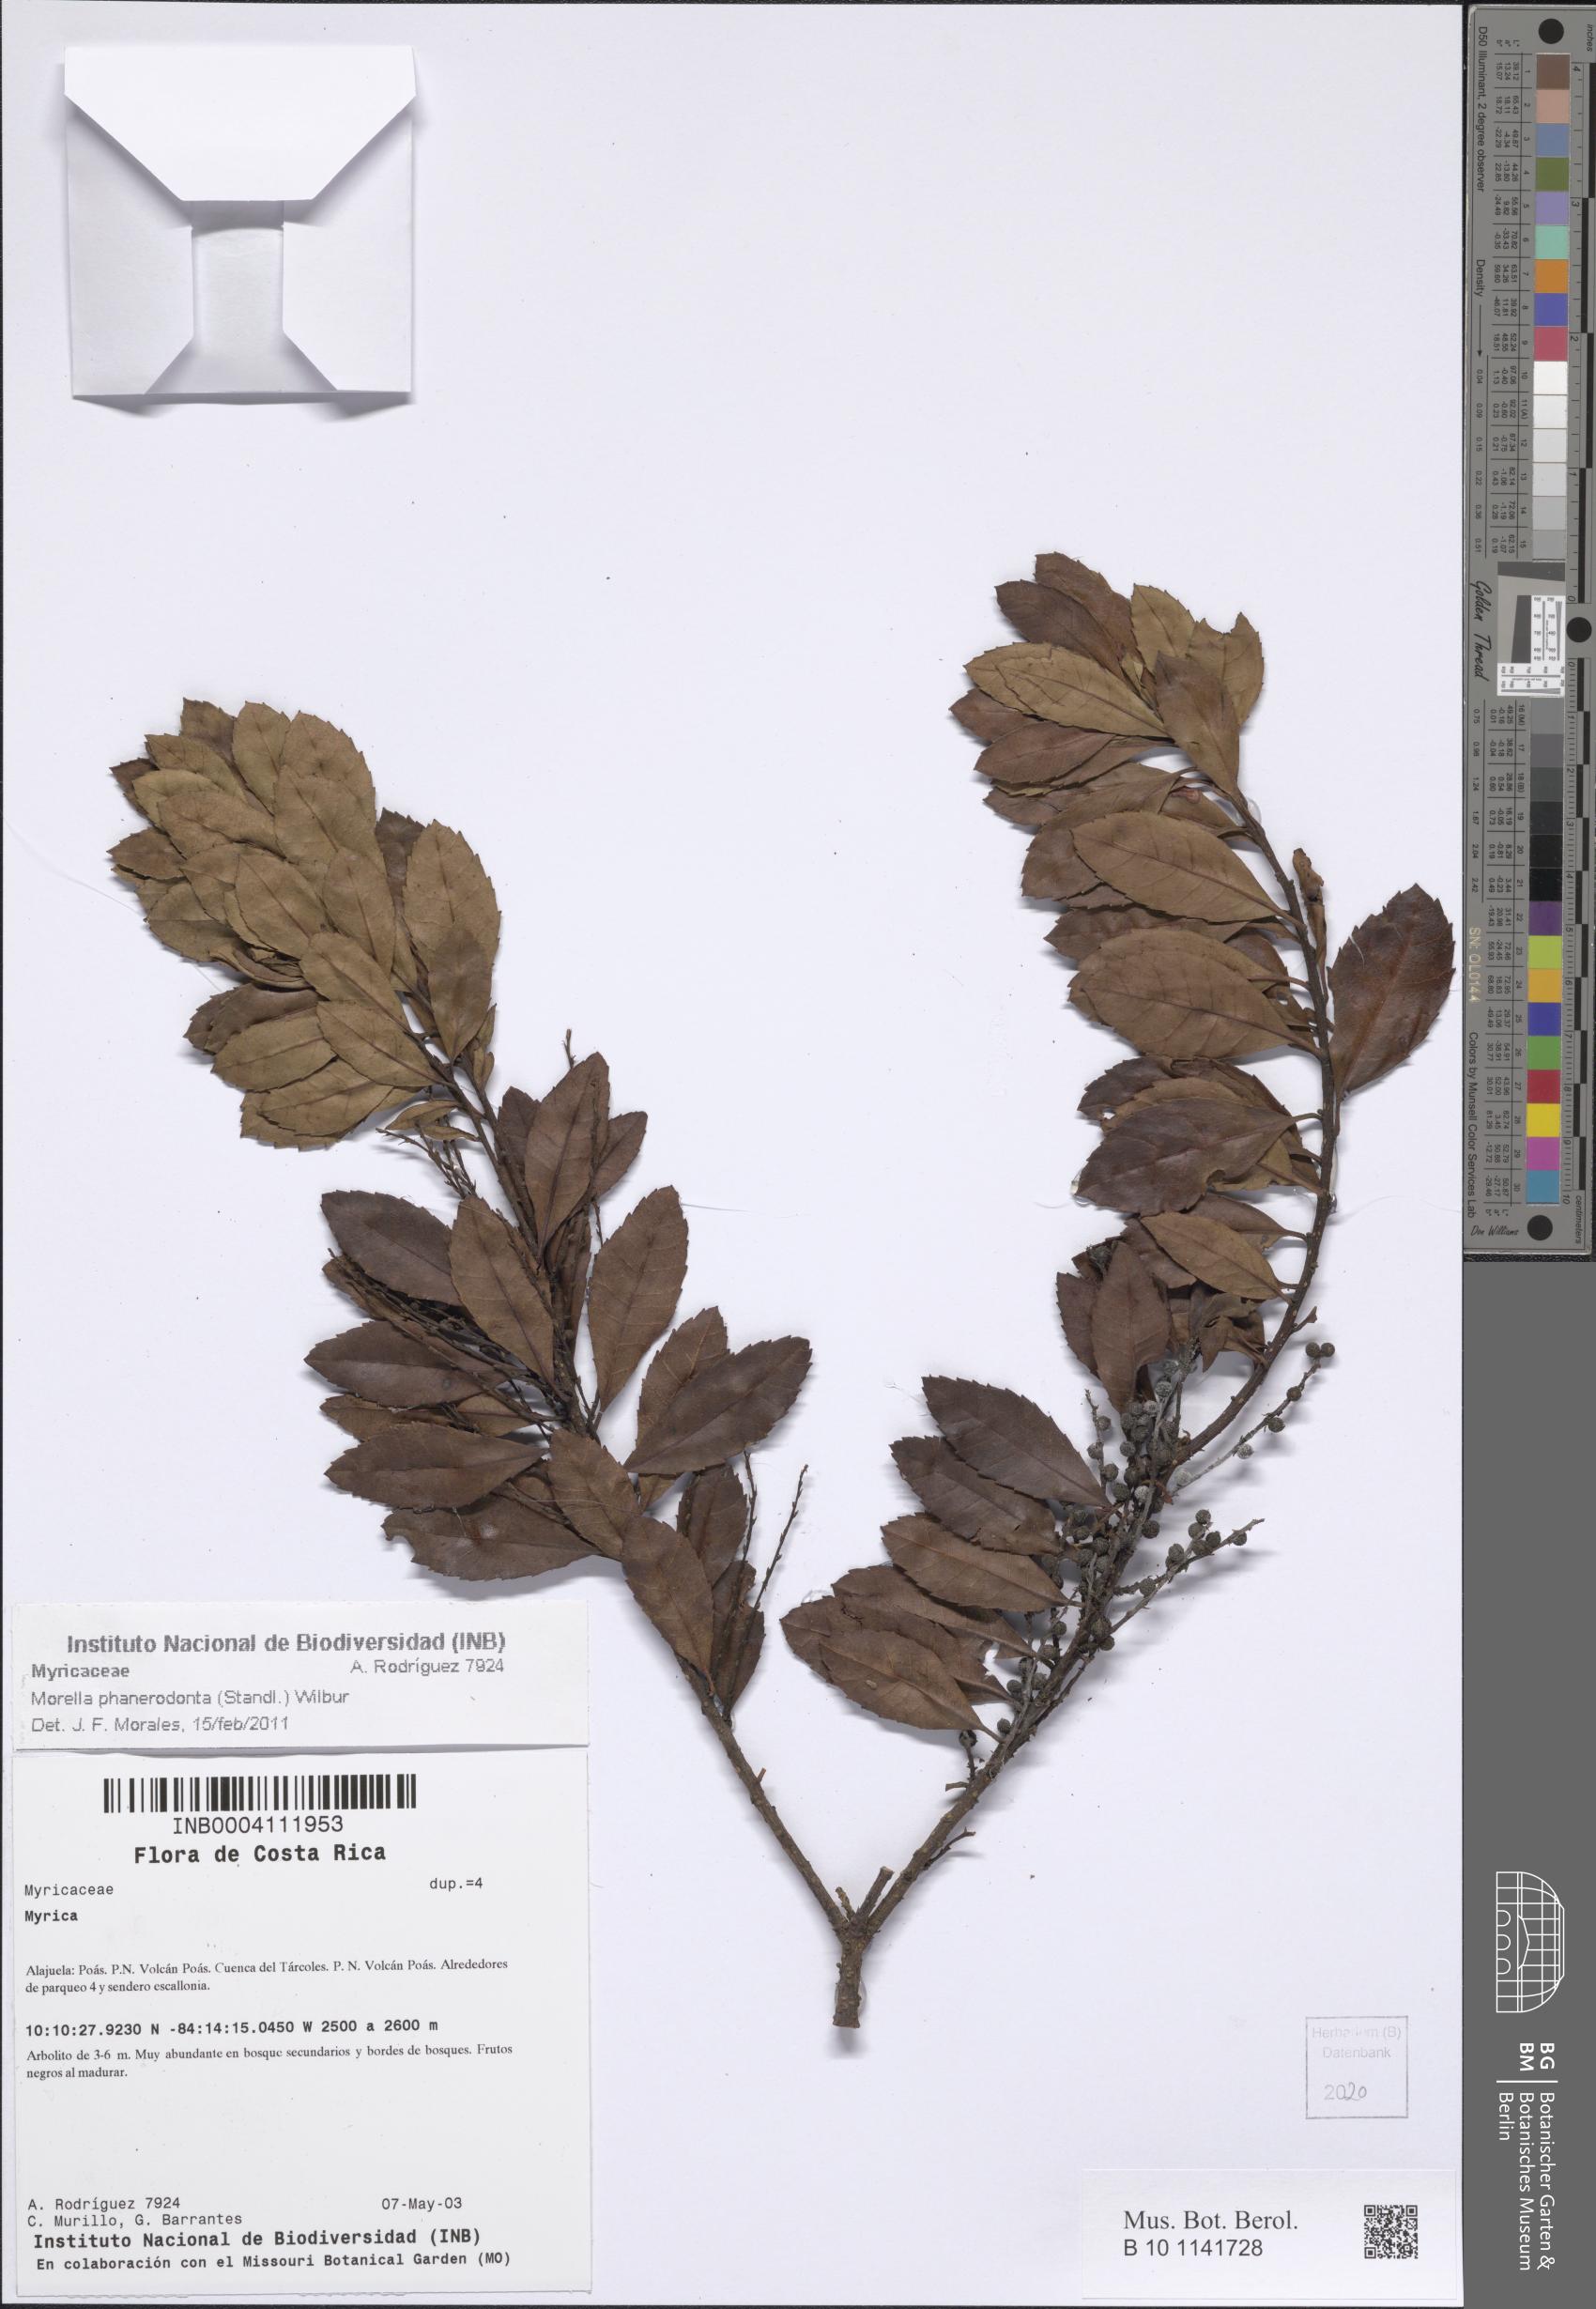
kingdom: Plantae
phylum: Tracheophyta
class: Magnoliopsida
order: Fagales
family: Myricaceae
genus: Morella
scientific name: Morella phanerodonta
